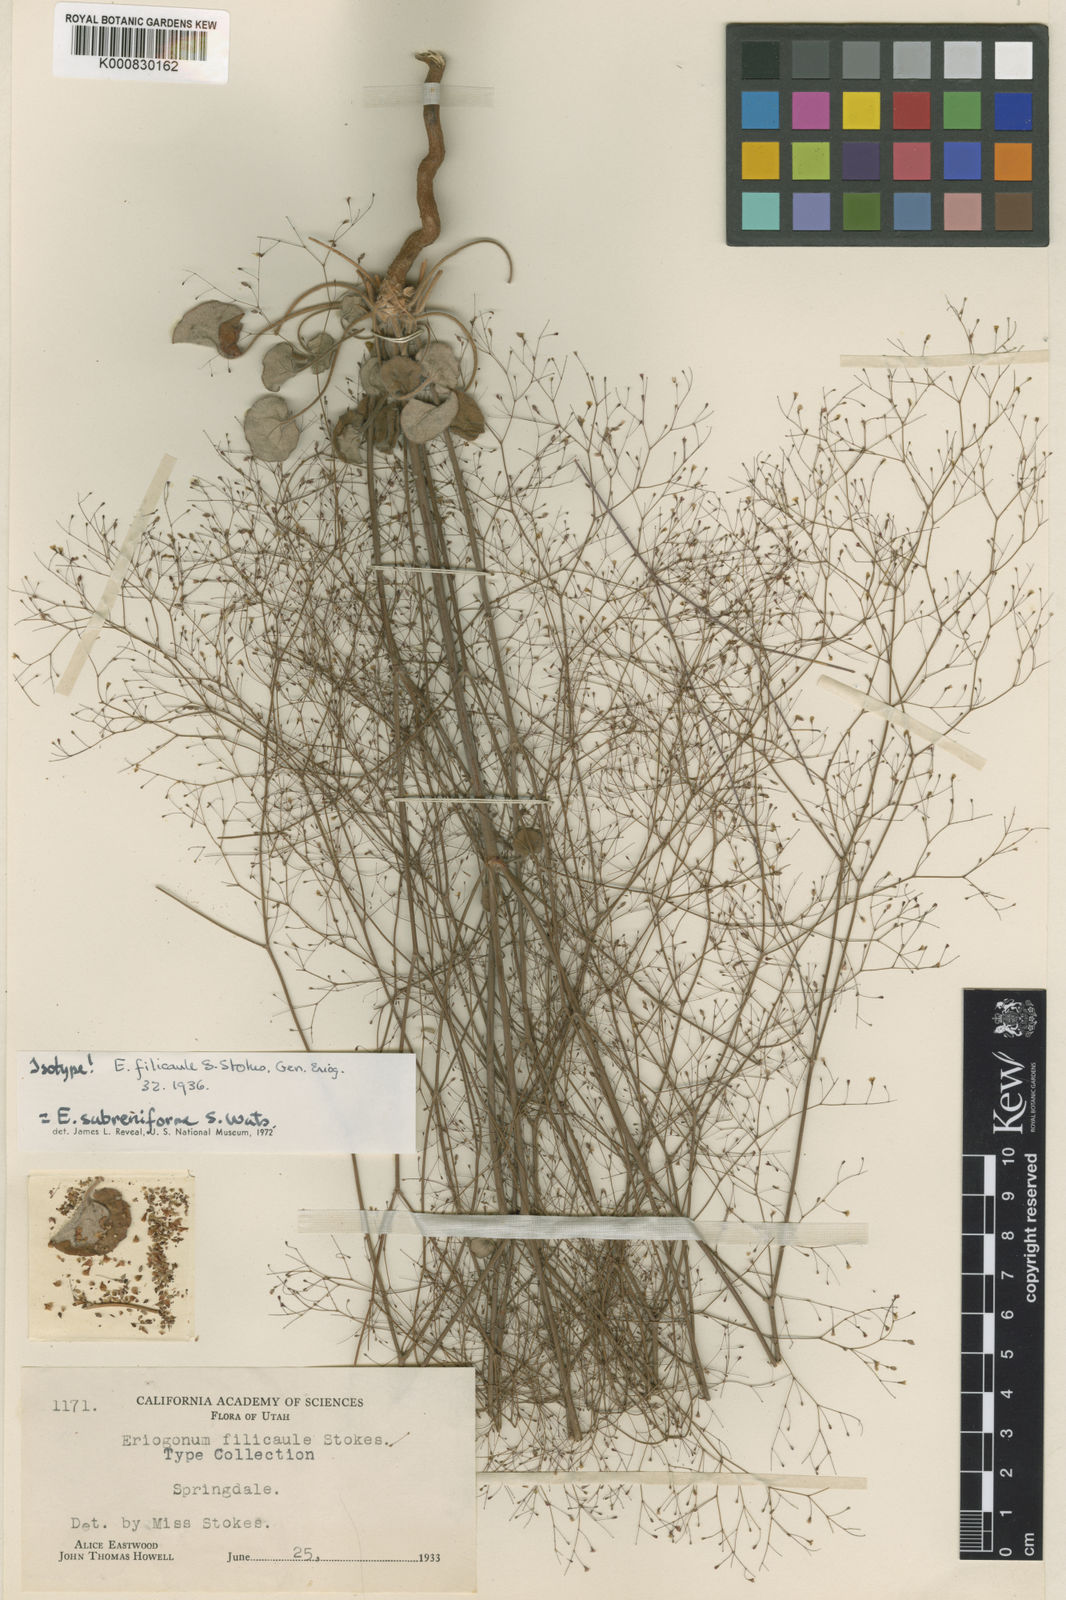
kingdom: Plantae
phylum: Tracheophyta
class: Magnoliopsida
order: Caryophyllales
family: Polygonaceae
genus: Eriogonum
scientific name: Eriogonum subreniforme
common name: Kidney-shape wild buckwheat
